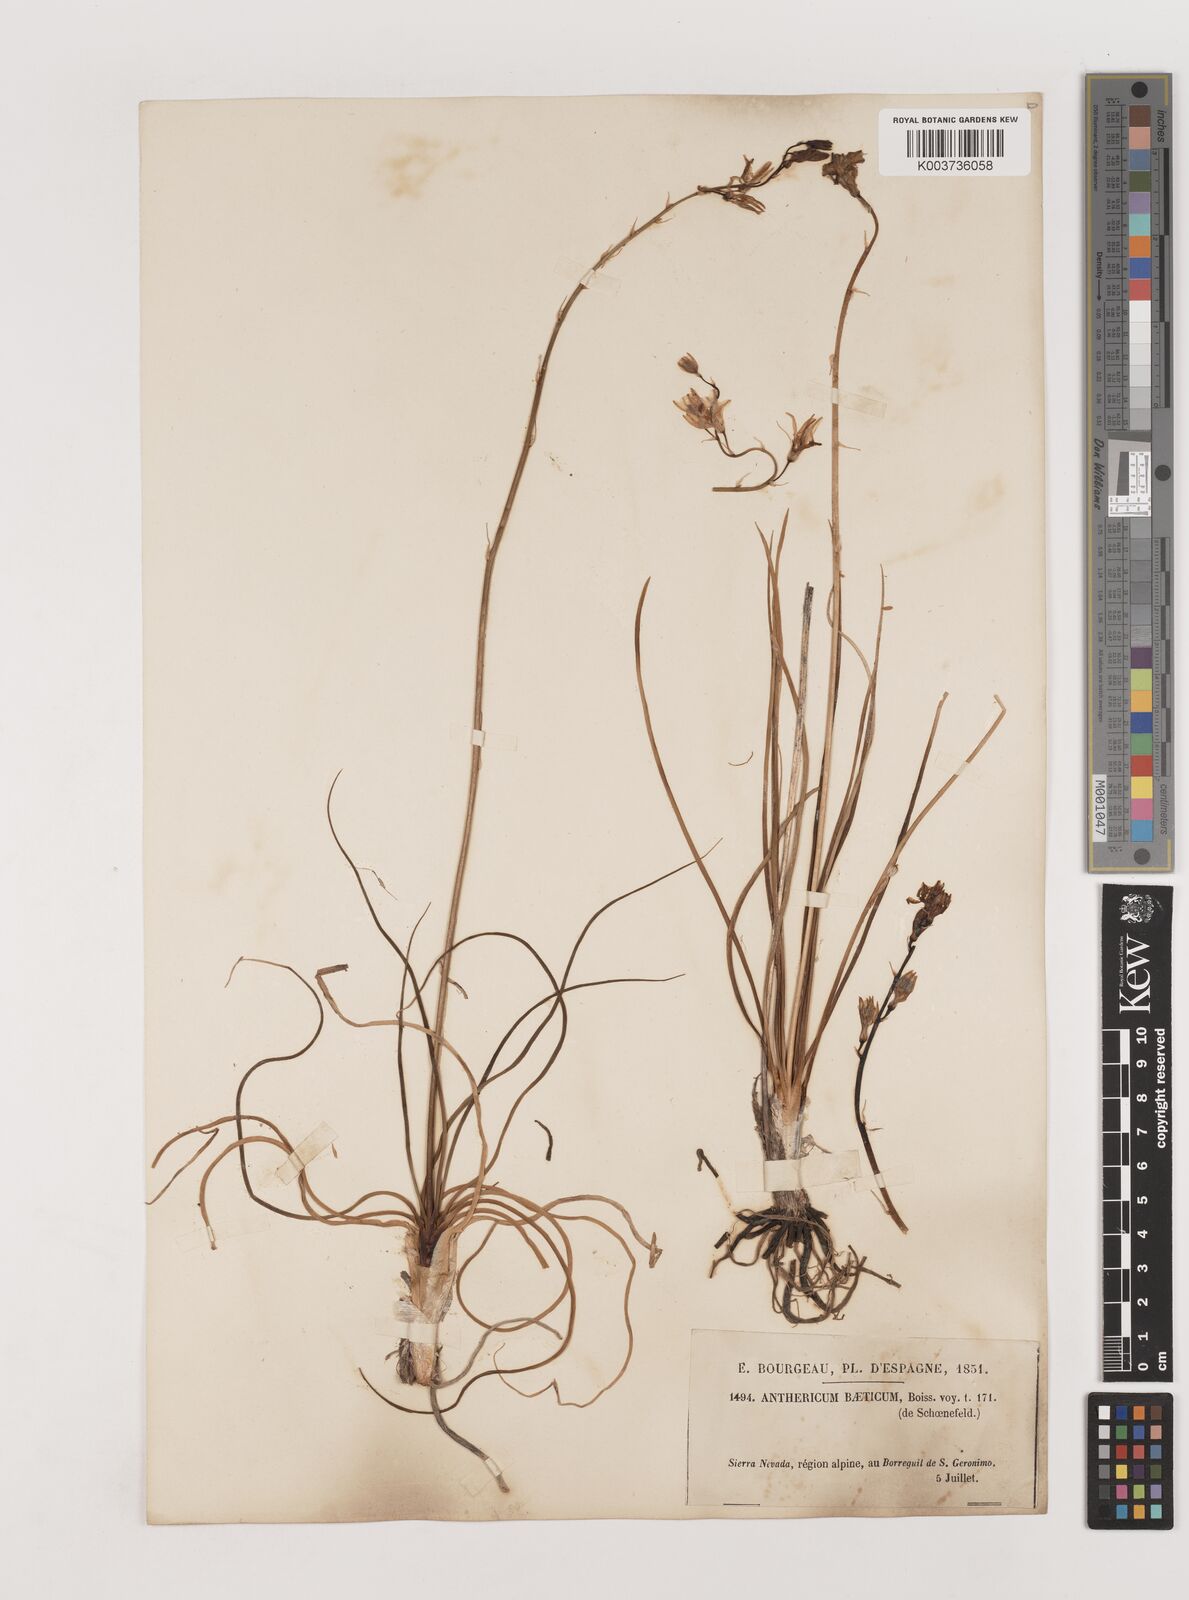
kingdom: Plantae
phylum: Tracheophyta
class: Liliopsida
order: Asparagales
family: Asparagaceae
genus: Anthericum
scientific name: Anthericum liliago
